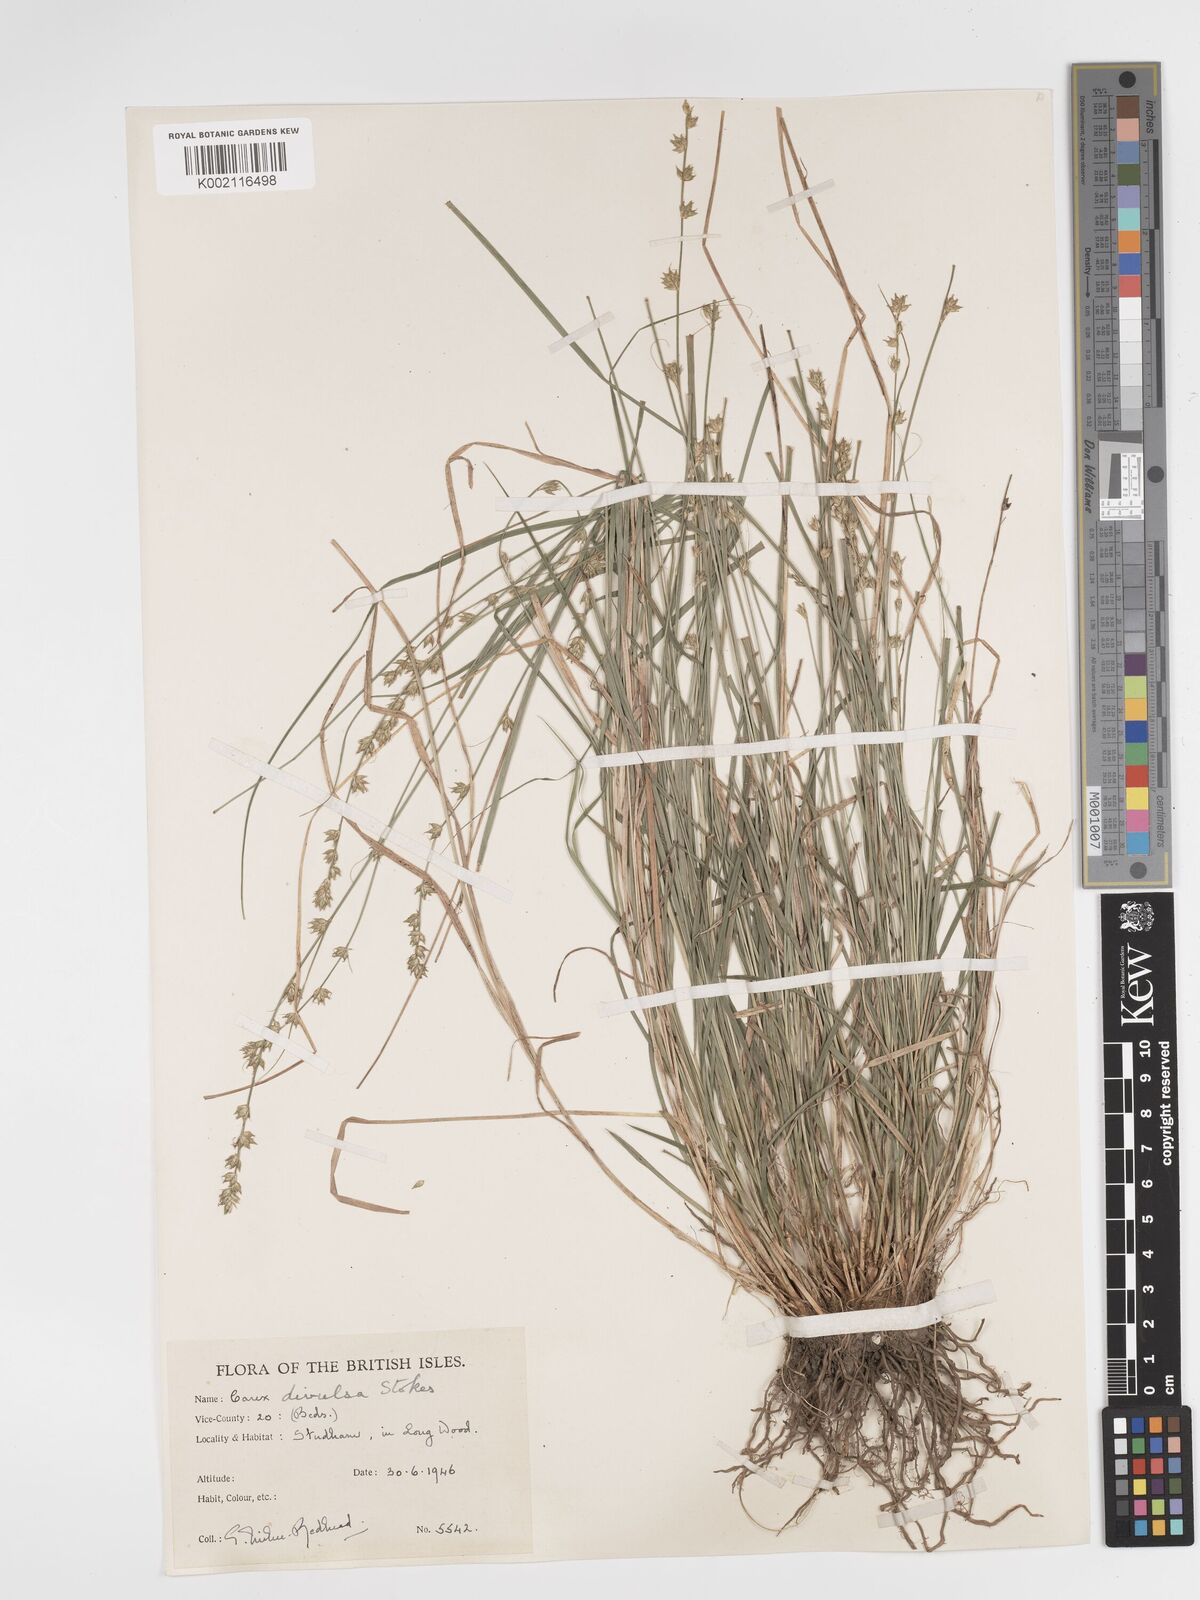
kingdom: Plantae
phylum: Tracheophyta
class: Liliopsida
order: Poales
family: Cyperaceae
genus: Carex
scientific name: Carex divulsa
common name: Grassland sedge
